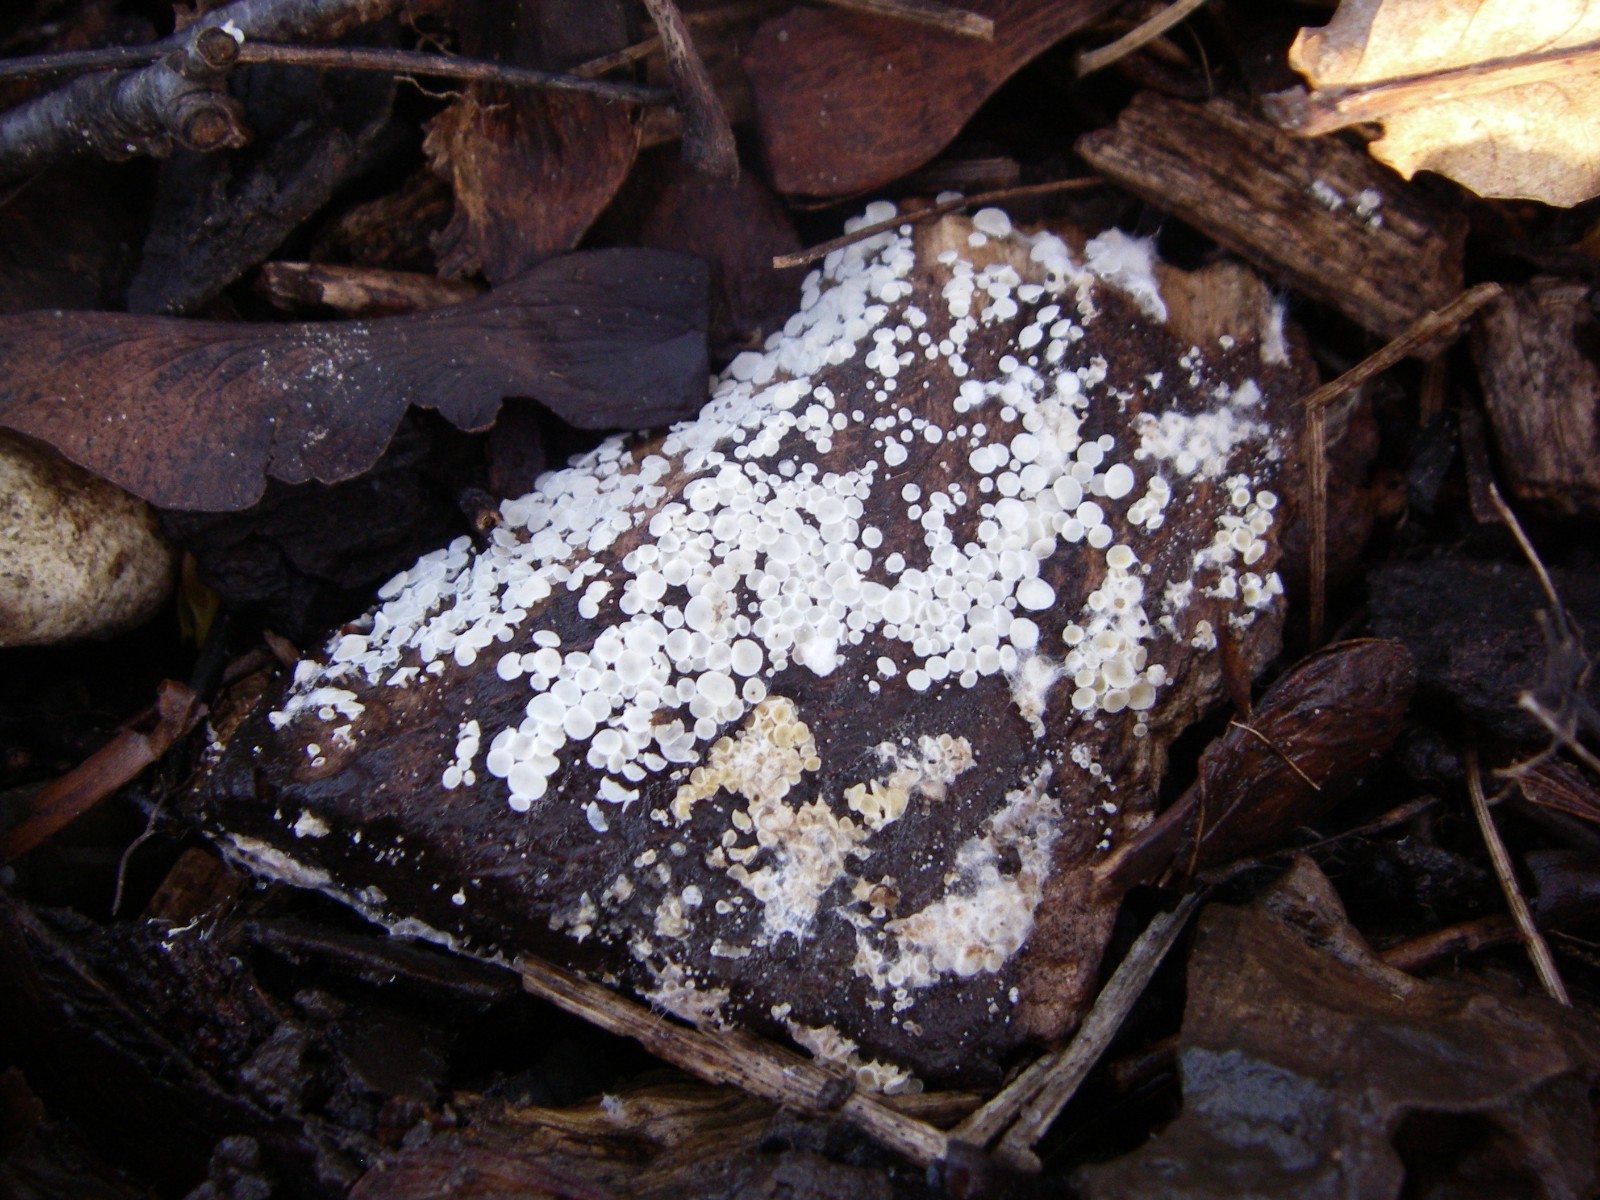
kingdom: Fungi
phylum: Ascomycota
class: Leotiomycetes
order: Helotiales
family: Lachnaceae
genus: Lachnum
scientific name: Lachnum
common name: frynseskive
